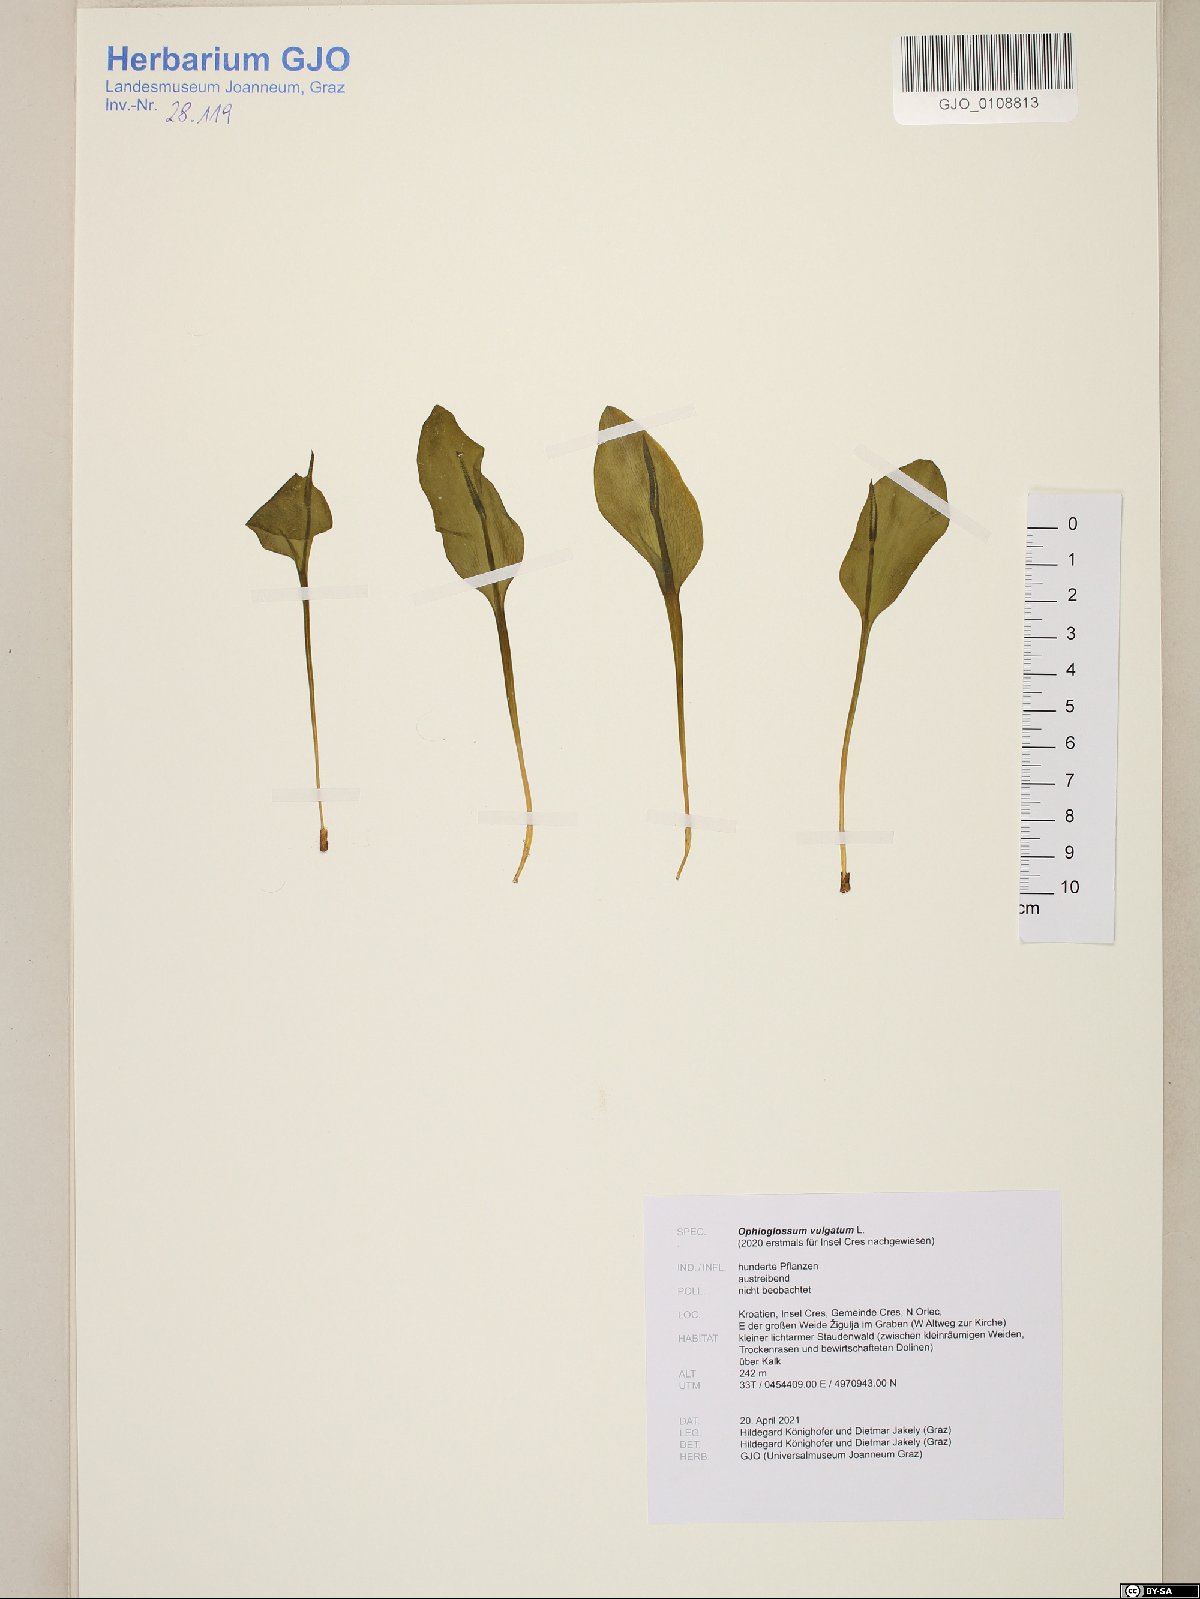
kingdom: Plantae
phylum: Tracheophyta
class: Polypodiopsida
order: Ophioglossales
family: Ophioglossaceae
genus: Ophioglossum
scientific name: Ophioglossum vulgatum
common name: Adder's-tongue
